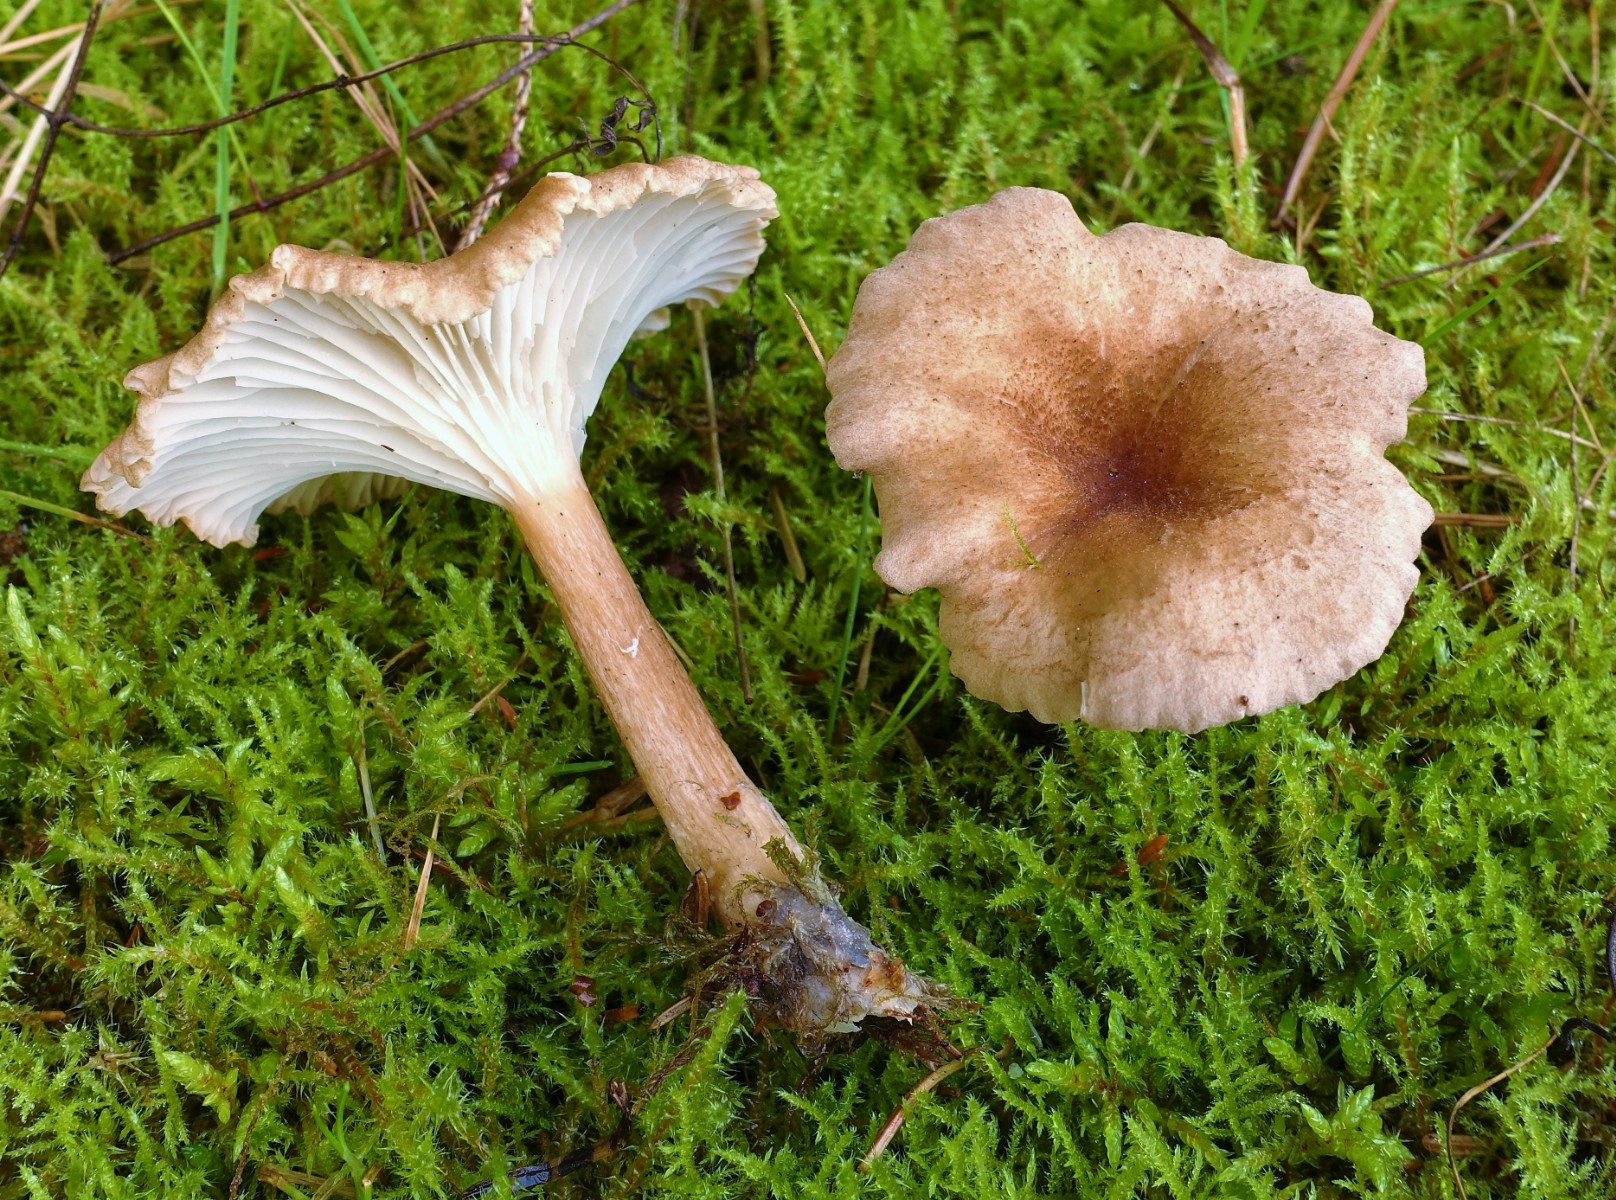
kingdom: Fungi
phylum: Basidiomycota
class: Agaricomycetes
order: Agaricales
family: Tricholomataceae
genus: Clitocybe
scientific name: Clitocybe costata
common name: brunstokket tragthat
